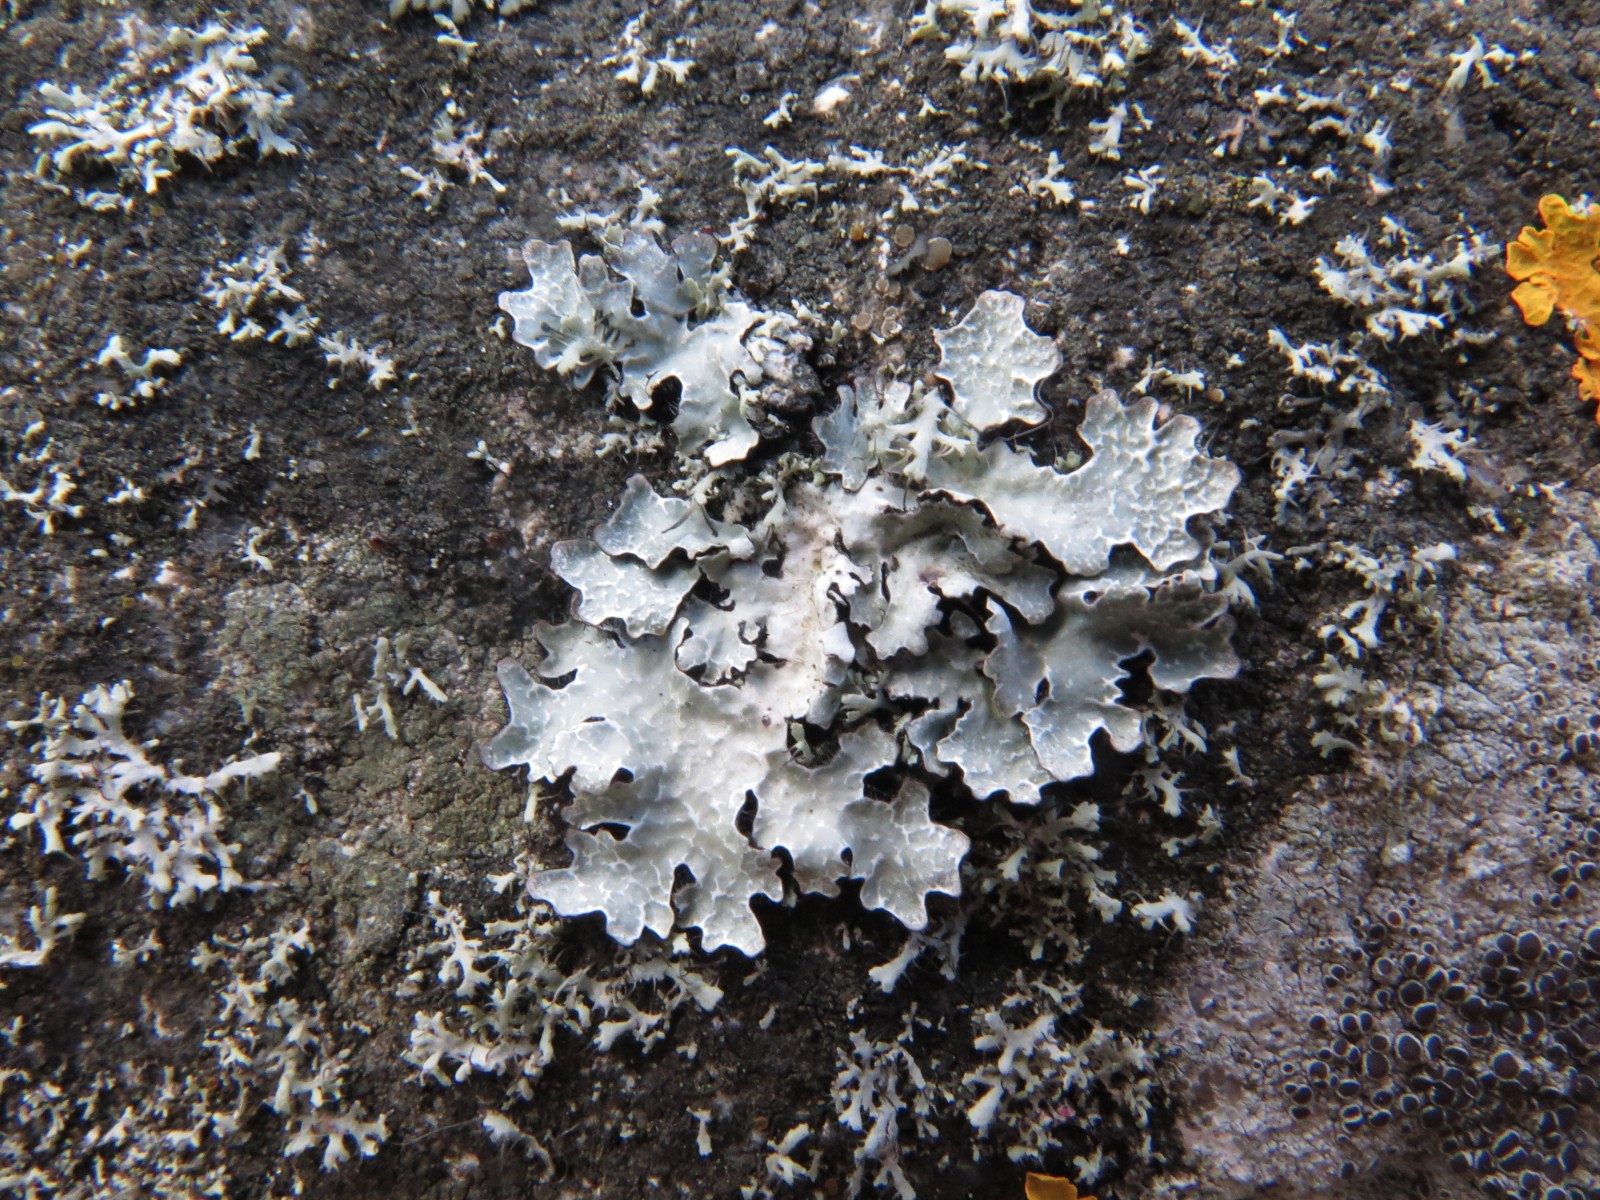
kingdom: Fungi
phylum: Ascomycota
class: Lecanoromycetes
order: Lecanorales
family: Parmeliaceae
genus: Parmelia
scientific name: Parmelia sulcata
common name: rynket skållav
